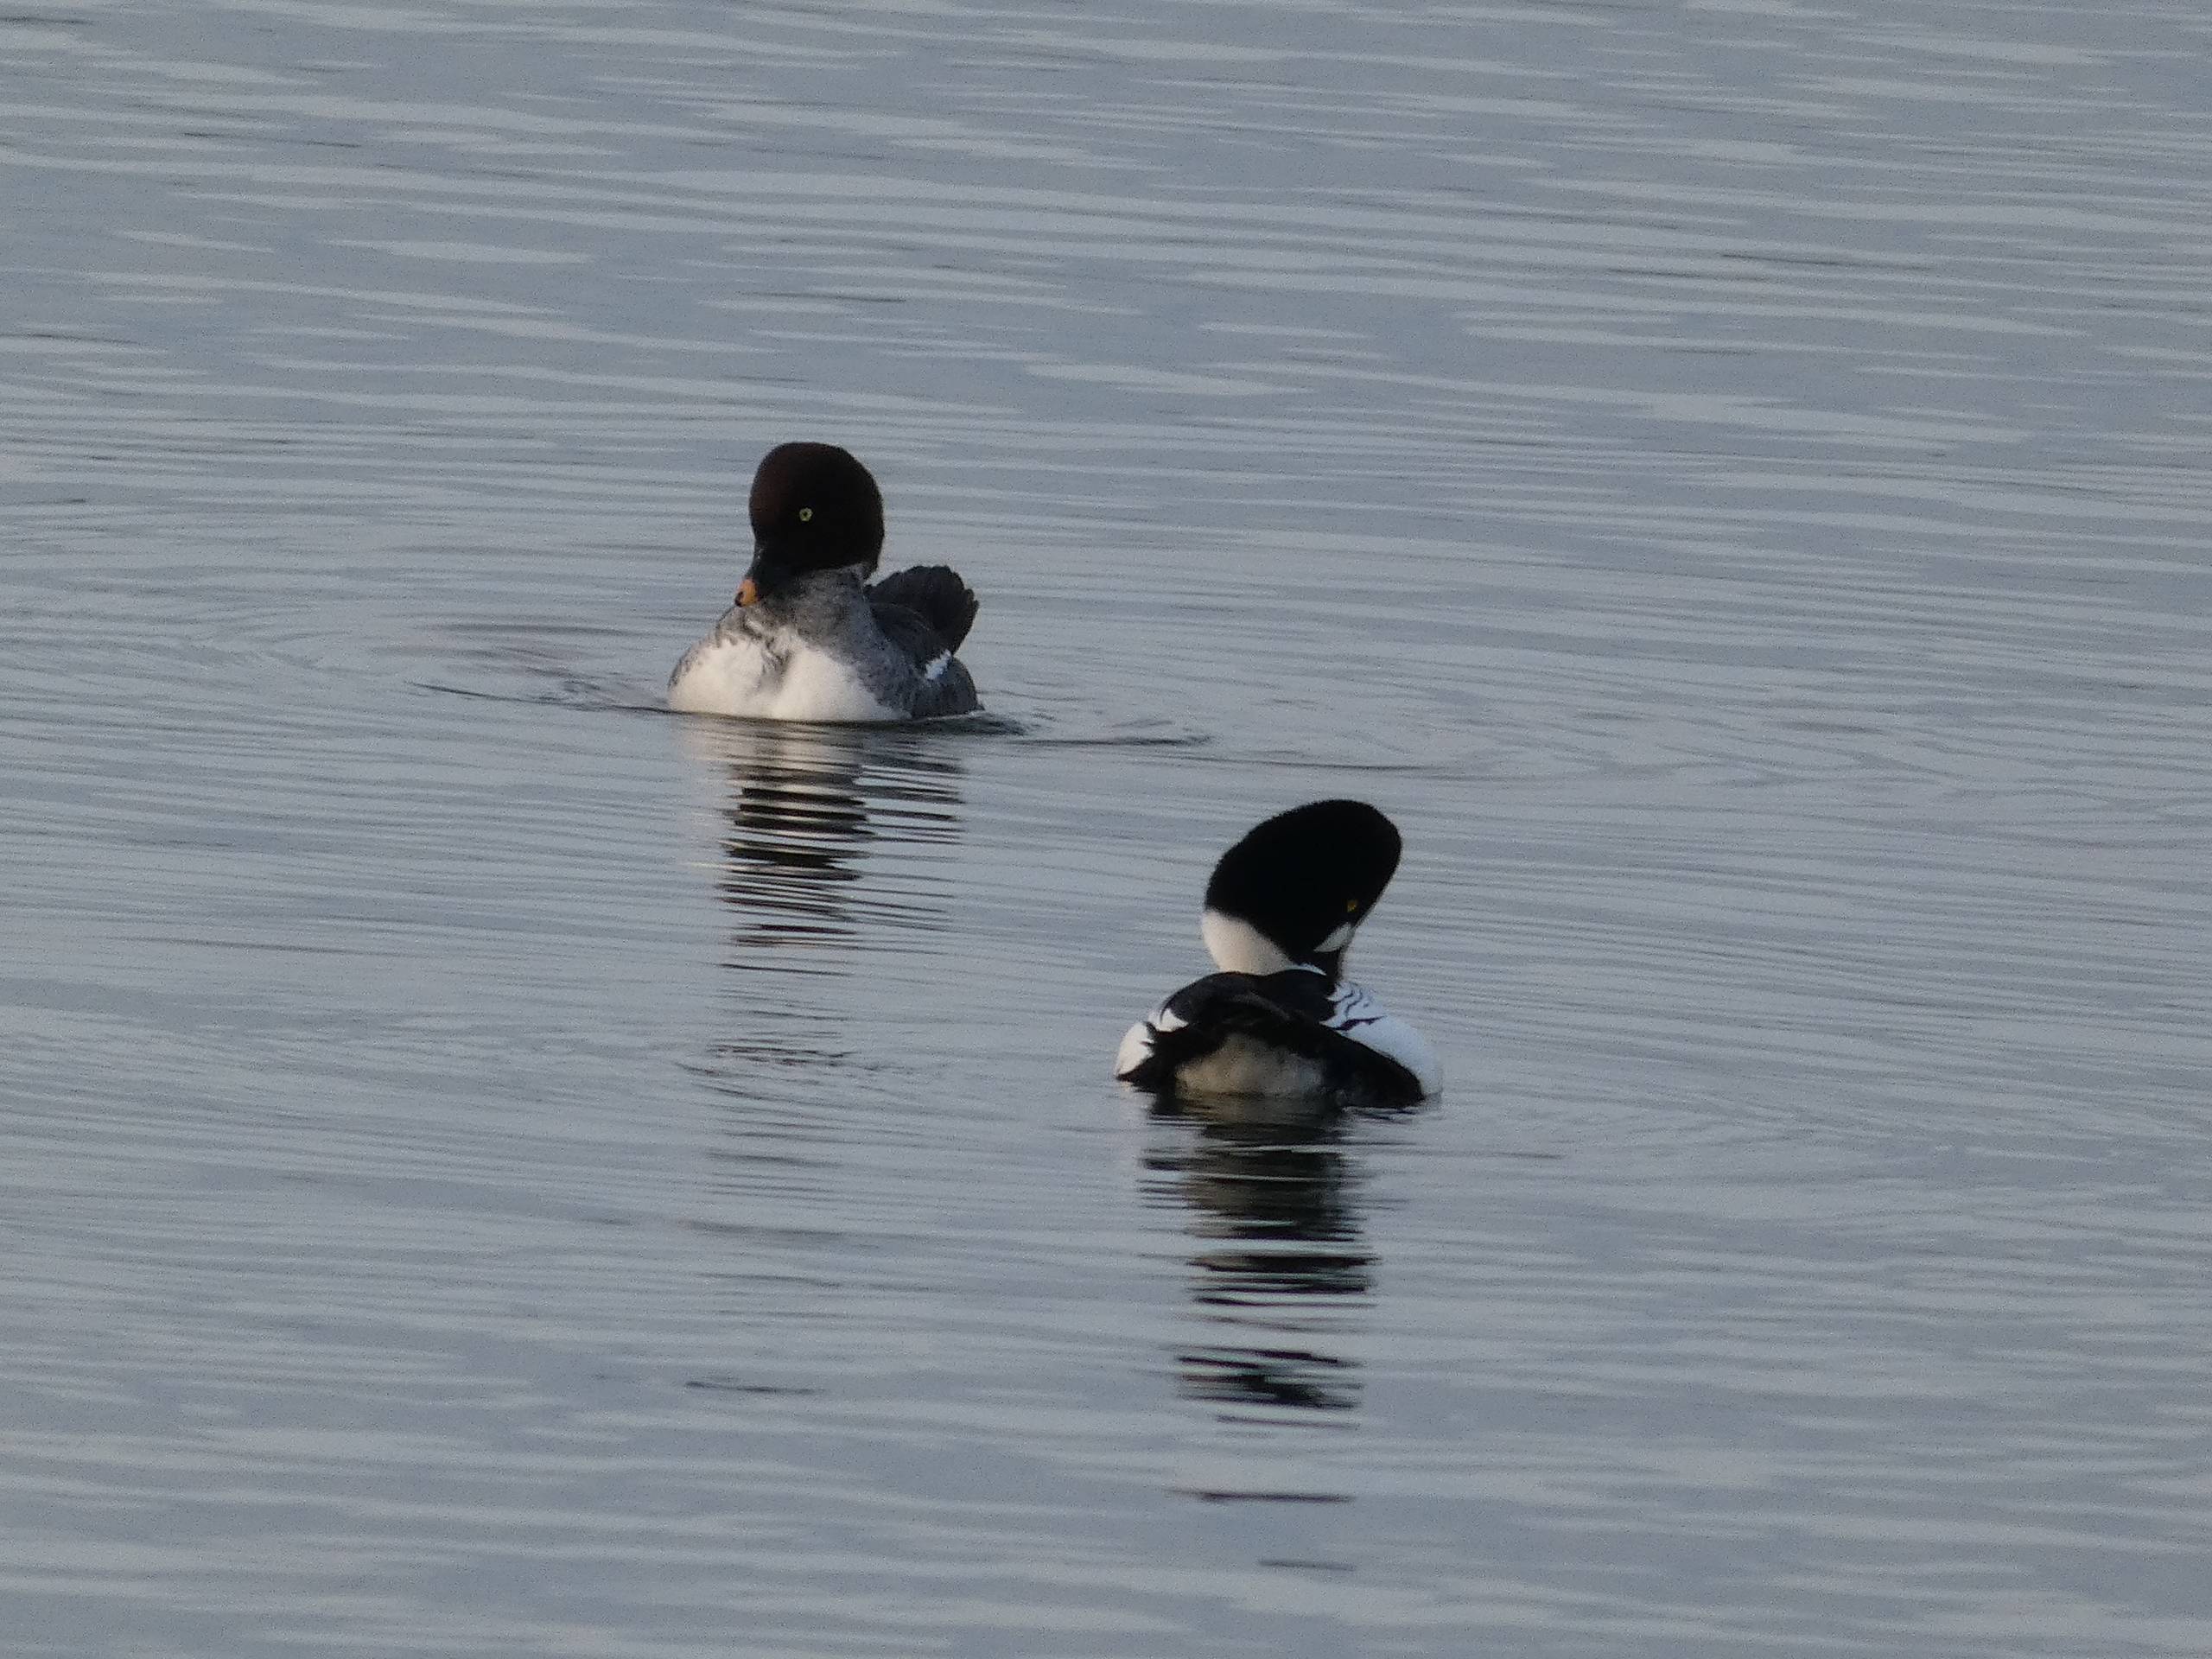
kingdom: Animalia
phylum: Chordata
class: Aves
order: Anseriformes
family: Anatidae
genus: Bucephala
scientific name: Bucephala clangula
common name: Hvinand
